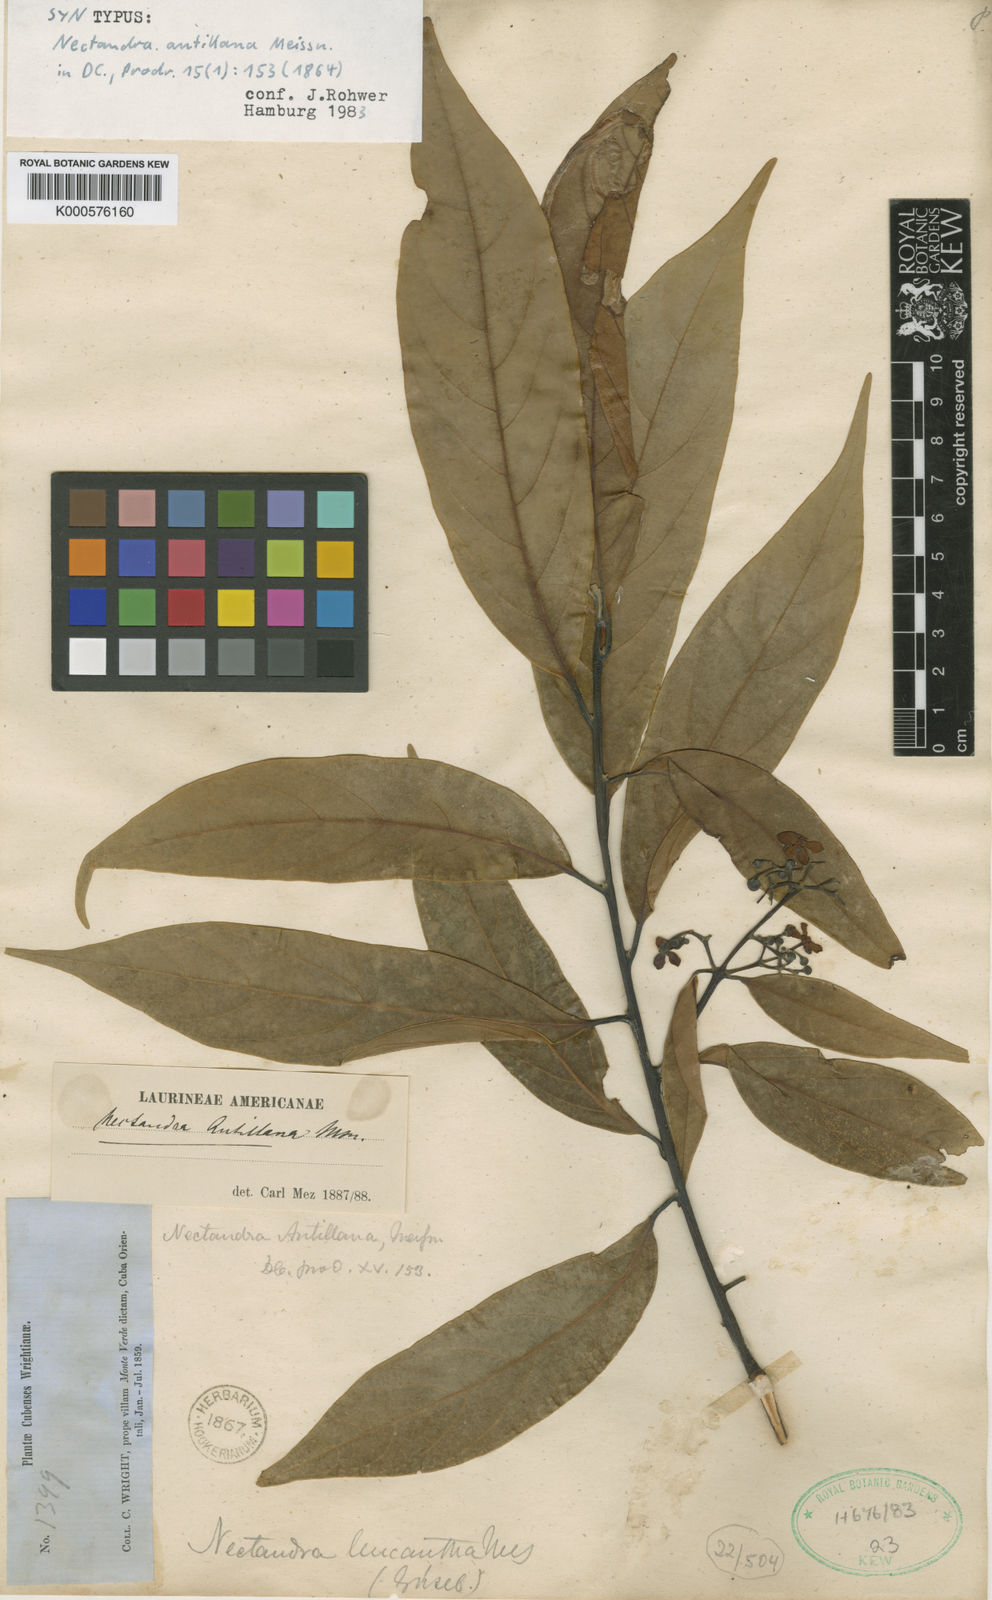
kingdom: Plantae
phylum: Tracheophyta
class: Magnoliopsida
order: Laurales
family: Lauraceae
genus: Nectandra
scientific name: Nectandra hihua
